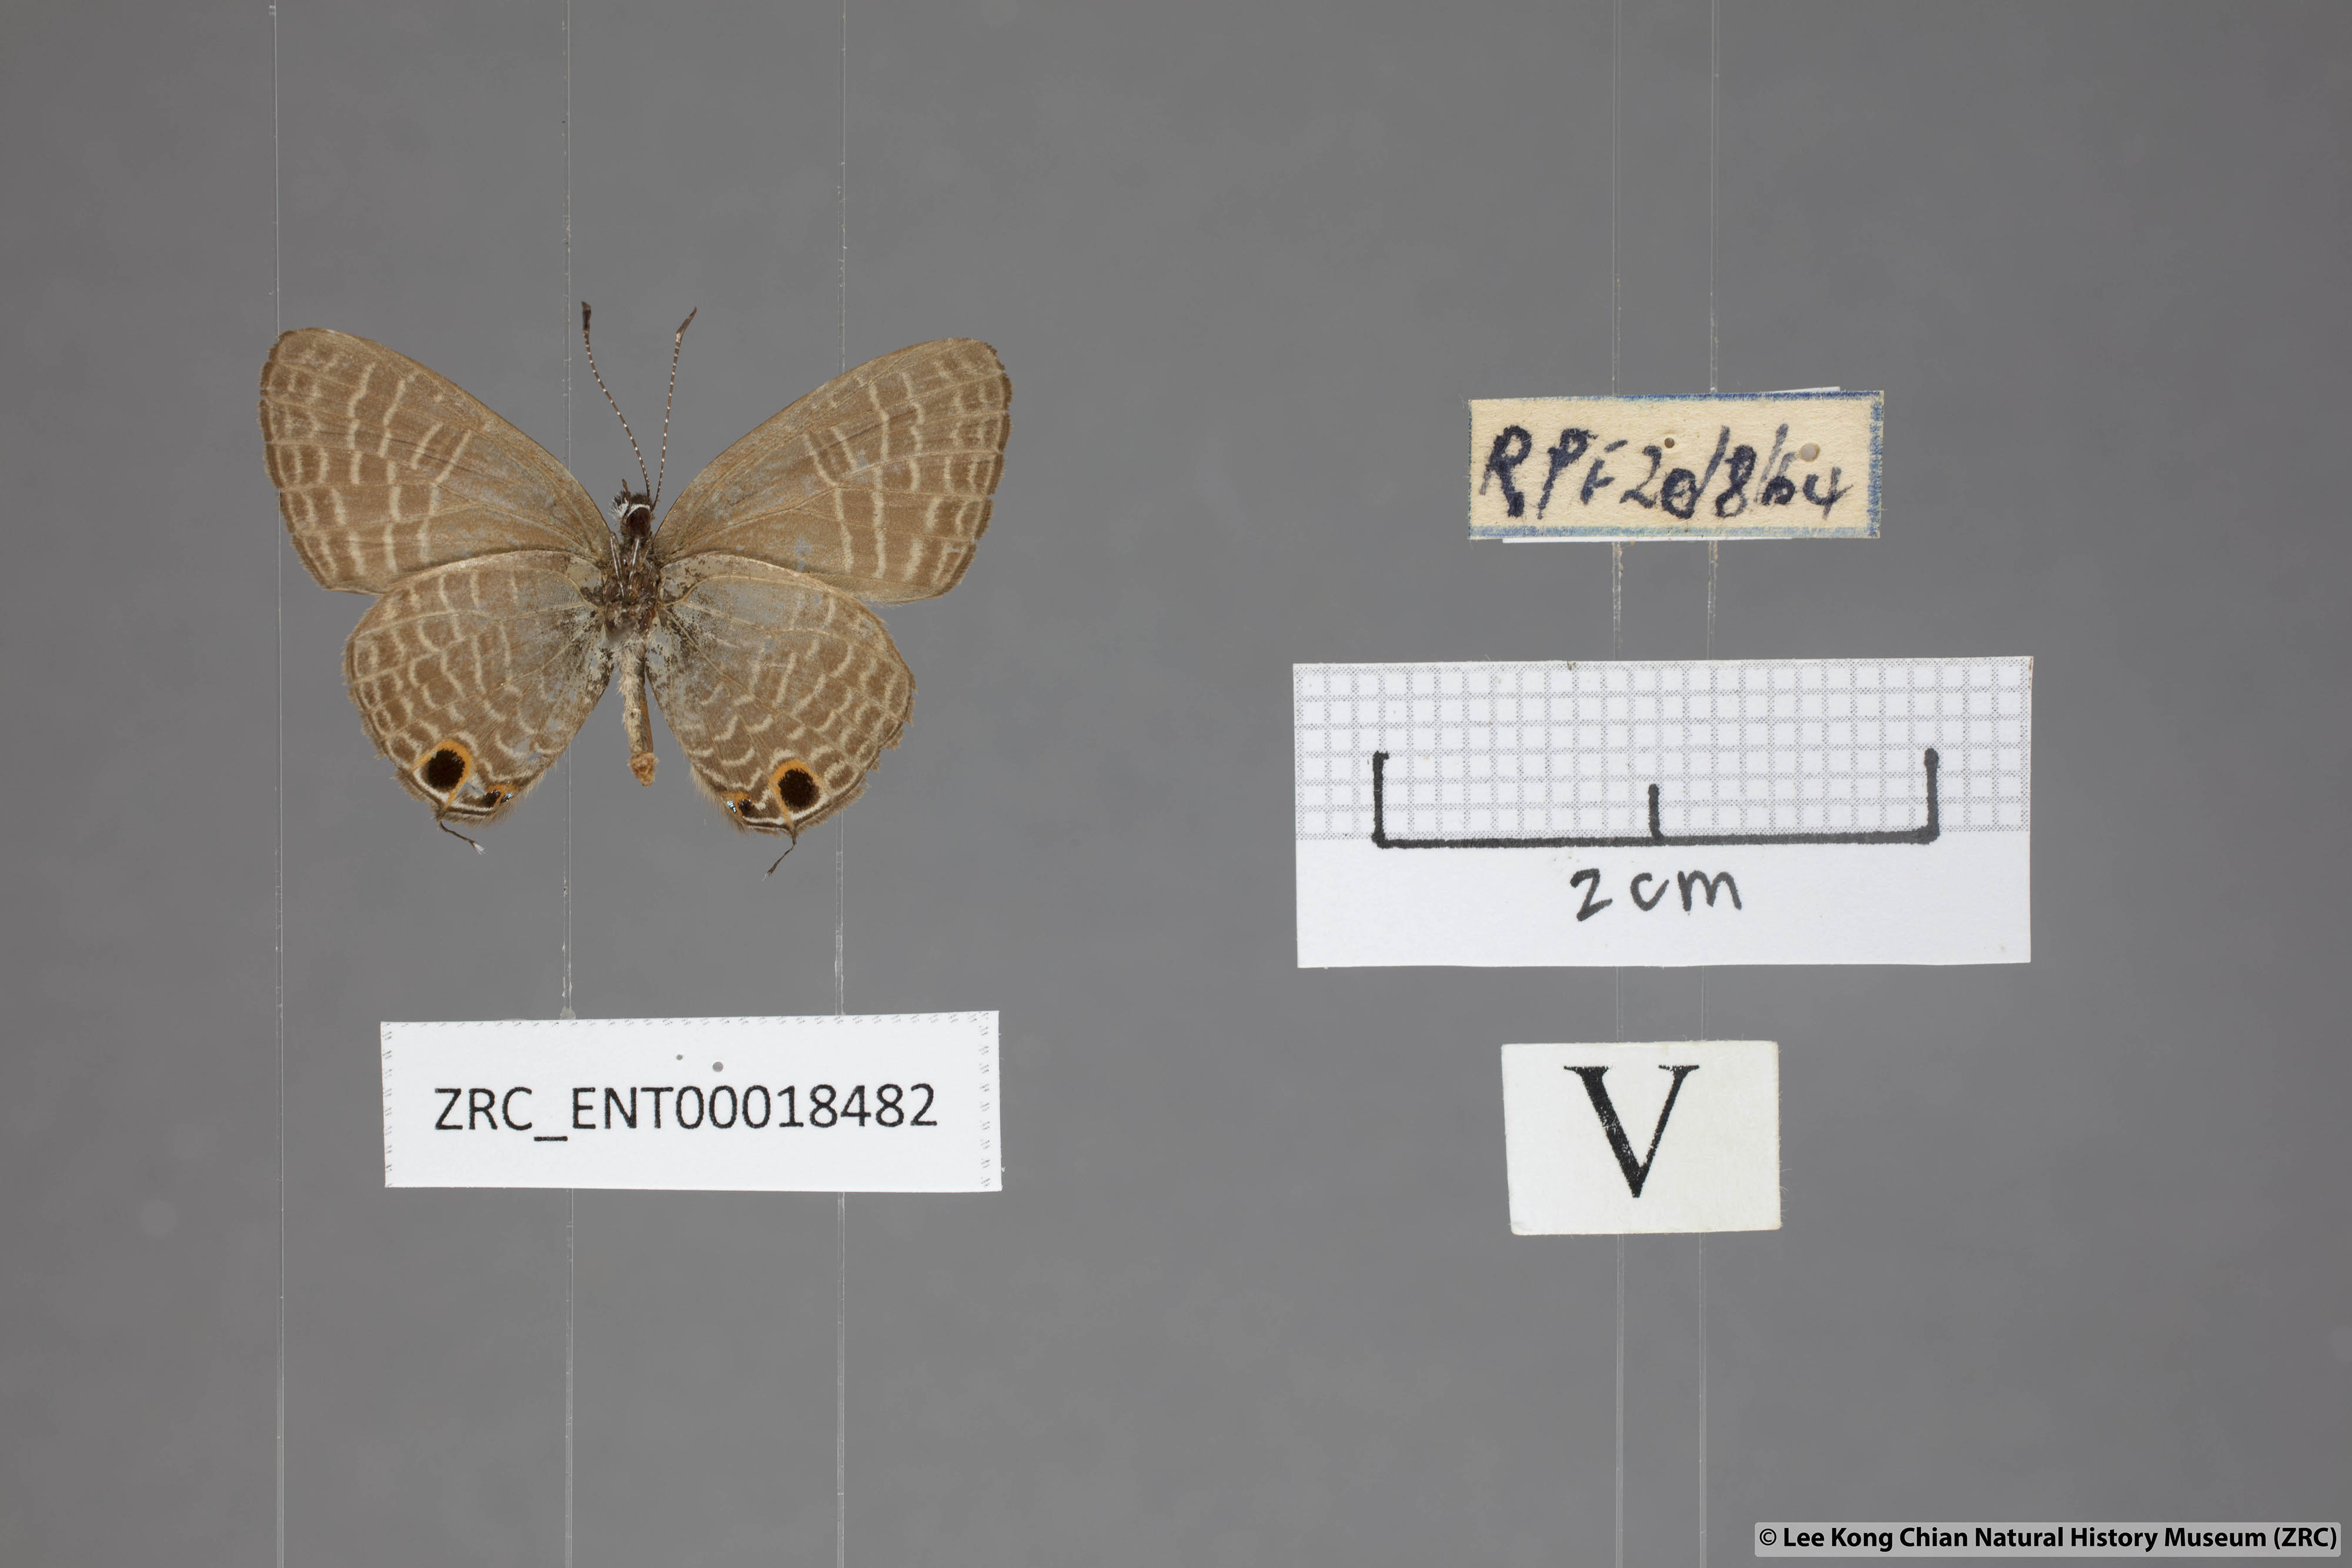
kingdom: Animalia
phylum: Arthropoda
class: Insecta
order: Lepidoptera
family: Lycaenidae
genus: Nacaduba
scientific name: Nacaduba subperusia
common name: Violet fourline blue
